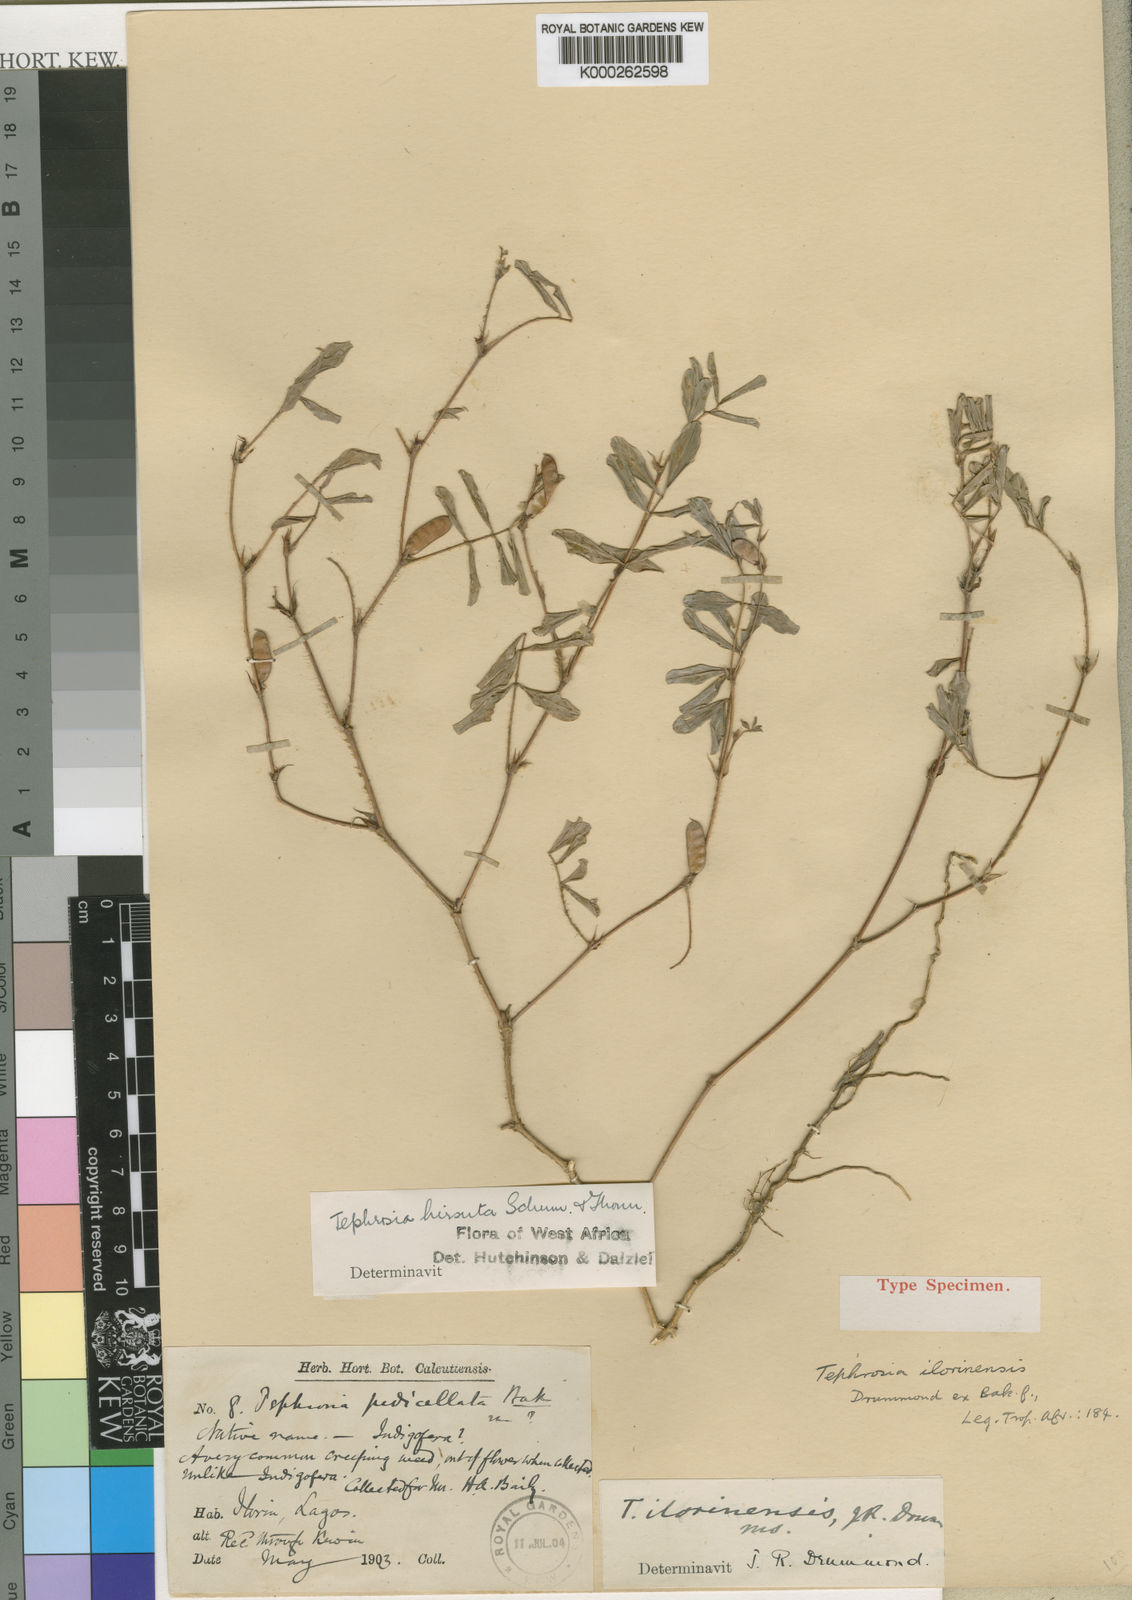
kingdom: Plantae
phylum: Tracheophyta
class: Magnoliopsida
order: Fabales
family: Fabaceae
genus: Tephrosia
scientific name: Tephrosia uniflora
